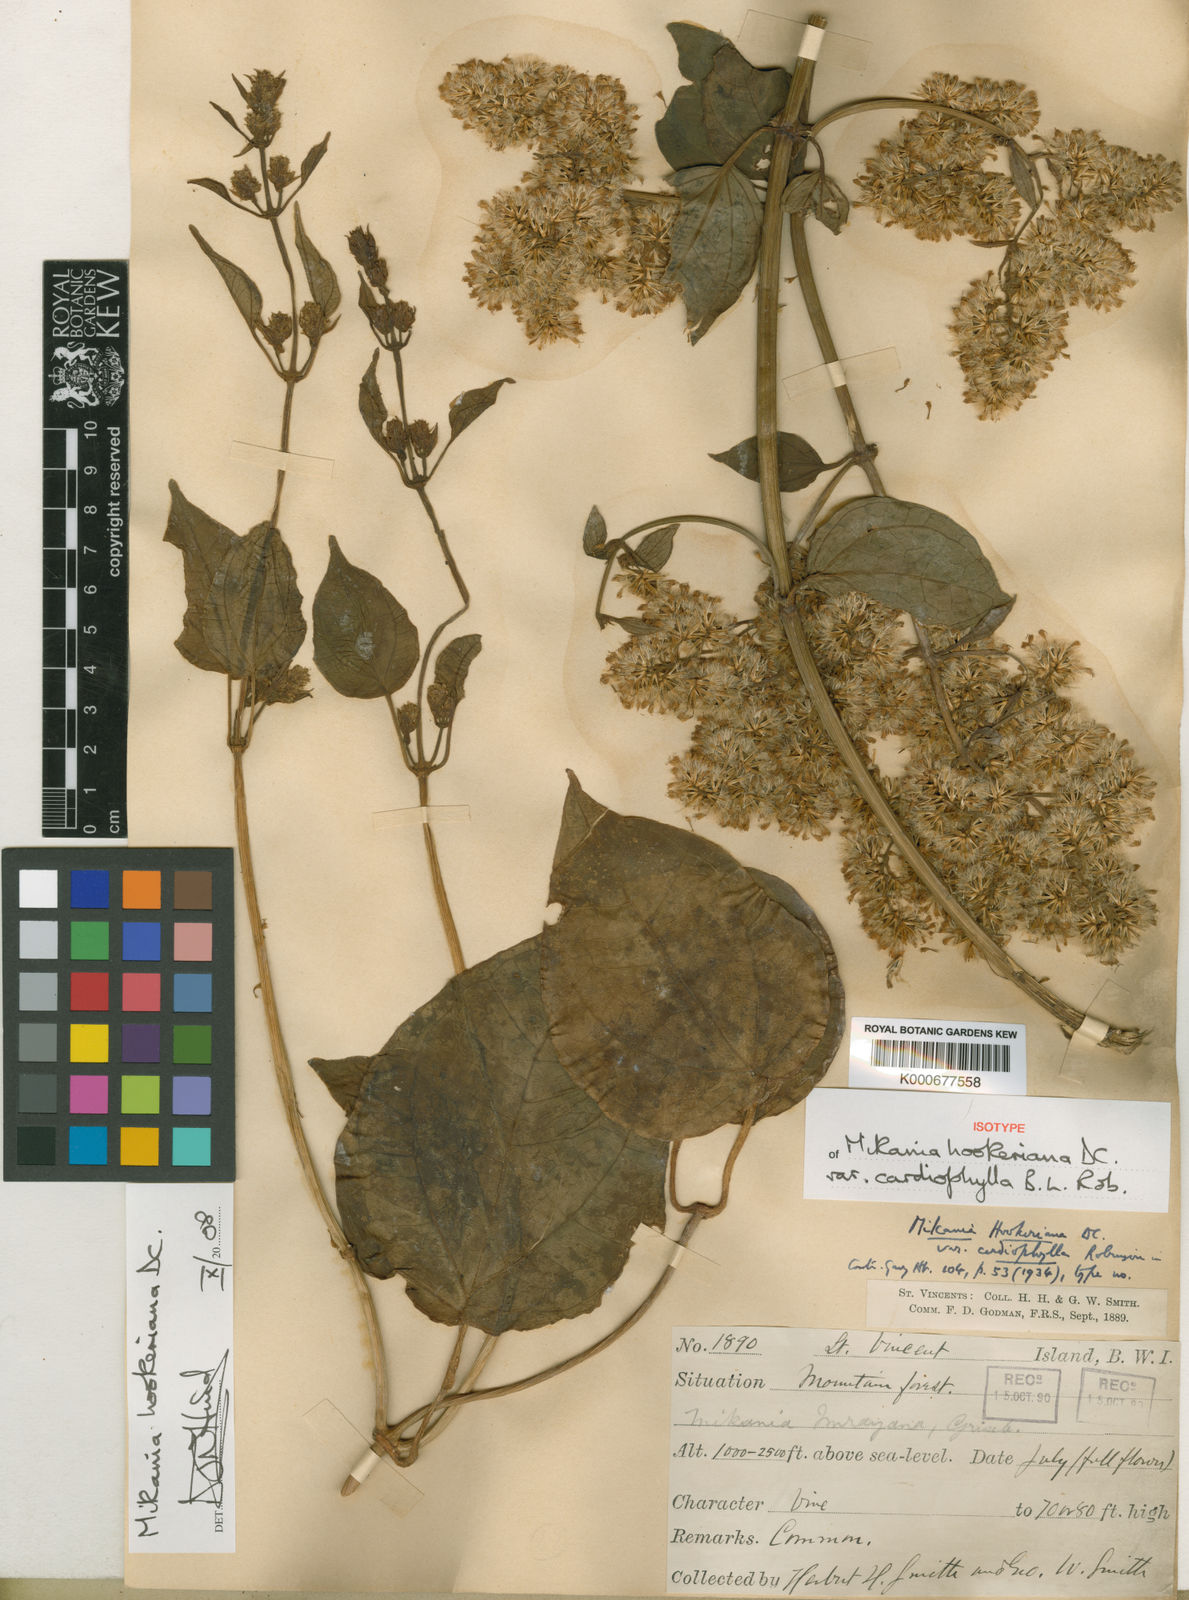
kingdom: Plantae
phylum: Tracheophyta
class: Magnoliopsida
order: Asterales
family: Asteraceae
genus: Mikania
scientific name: Mikania hookeriana
